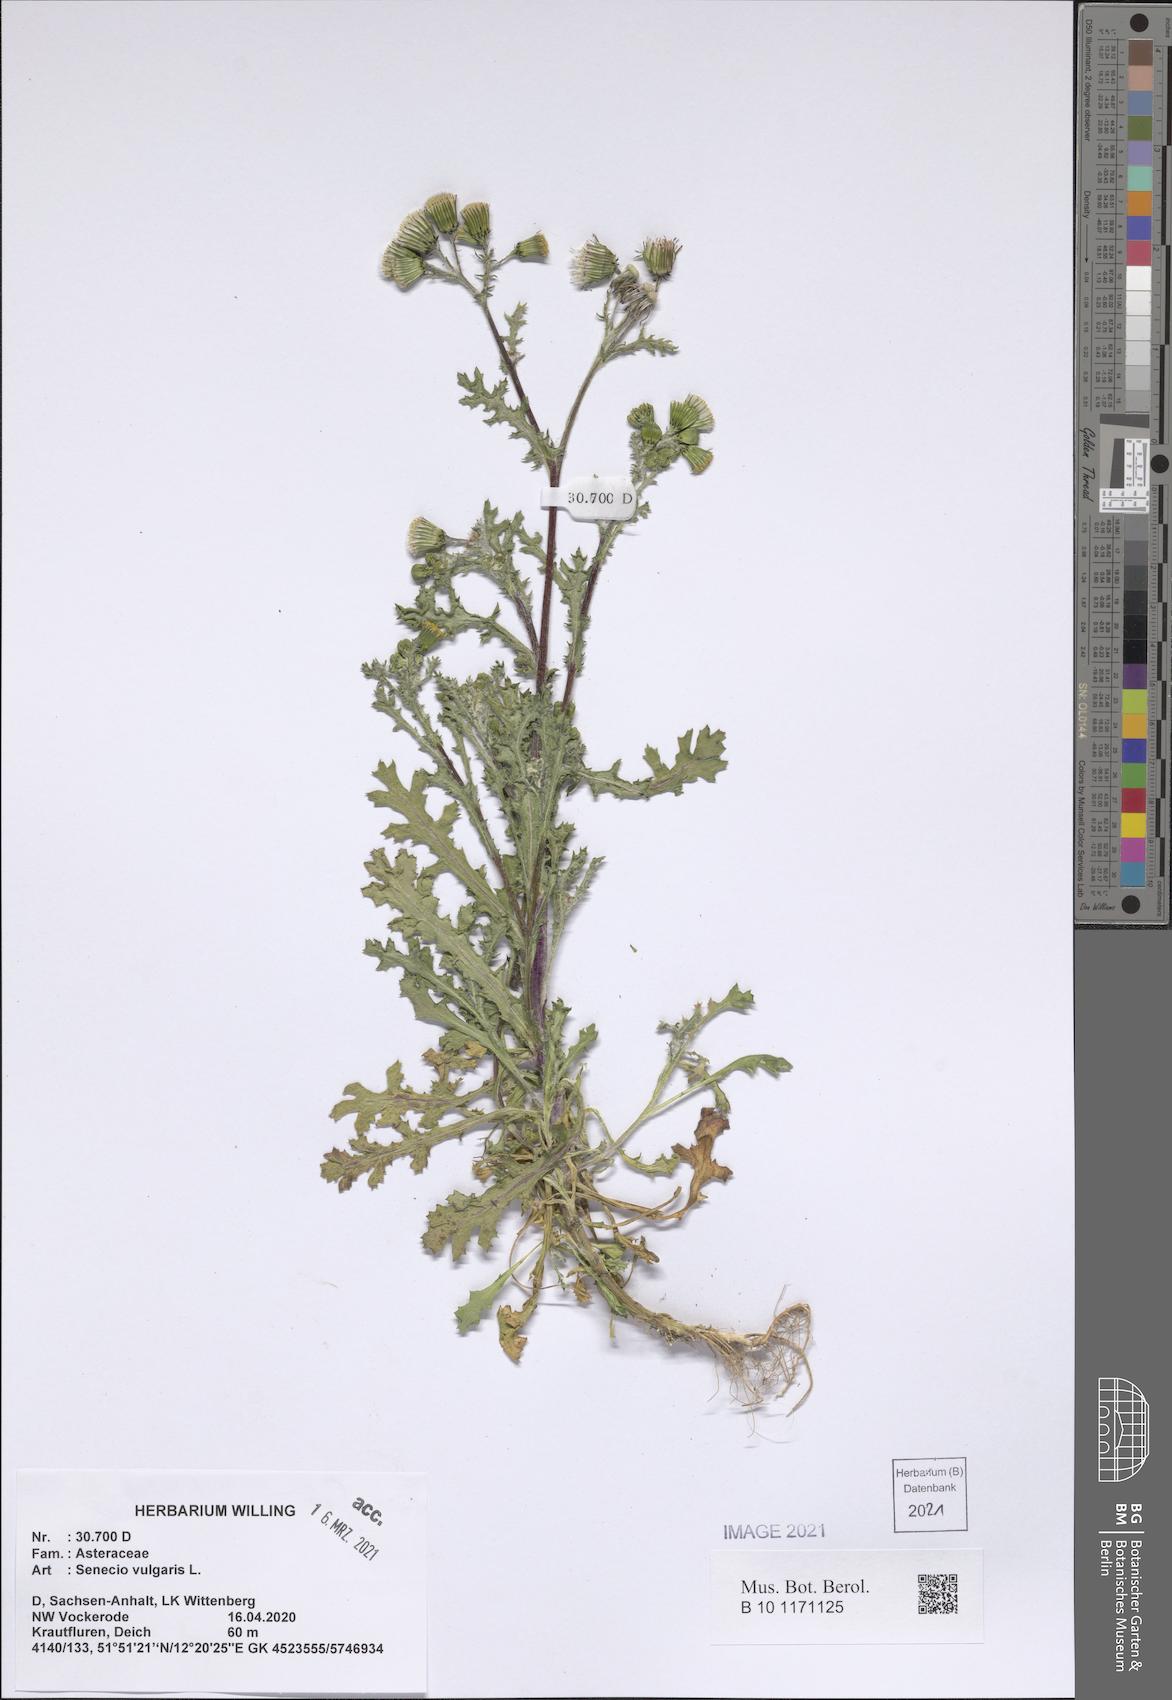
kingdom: Plantae
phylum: Tracheophyta
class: Magnoliopsida
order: Asterales
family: Asteraceae
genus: Senecio
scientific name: Senecio vulgaris
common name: Old-man-in-the-spring
